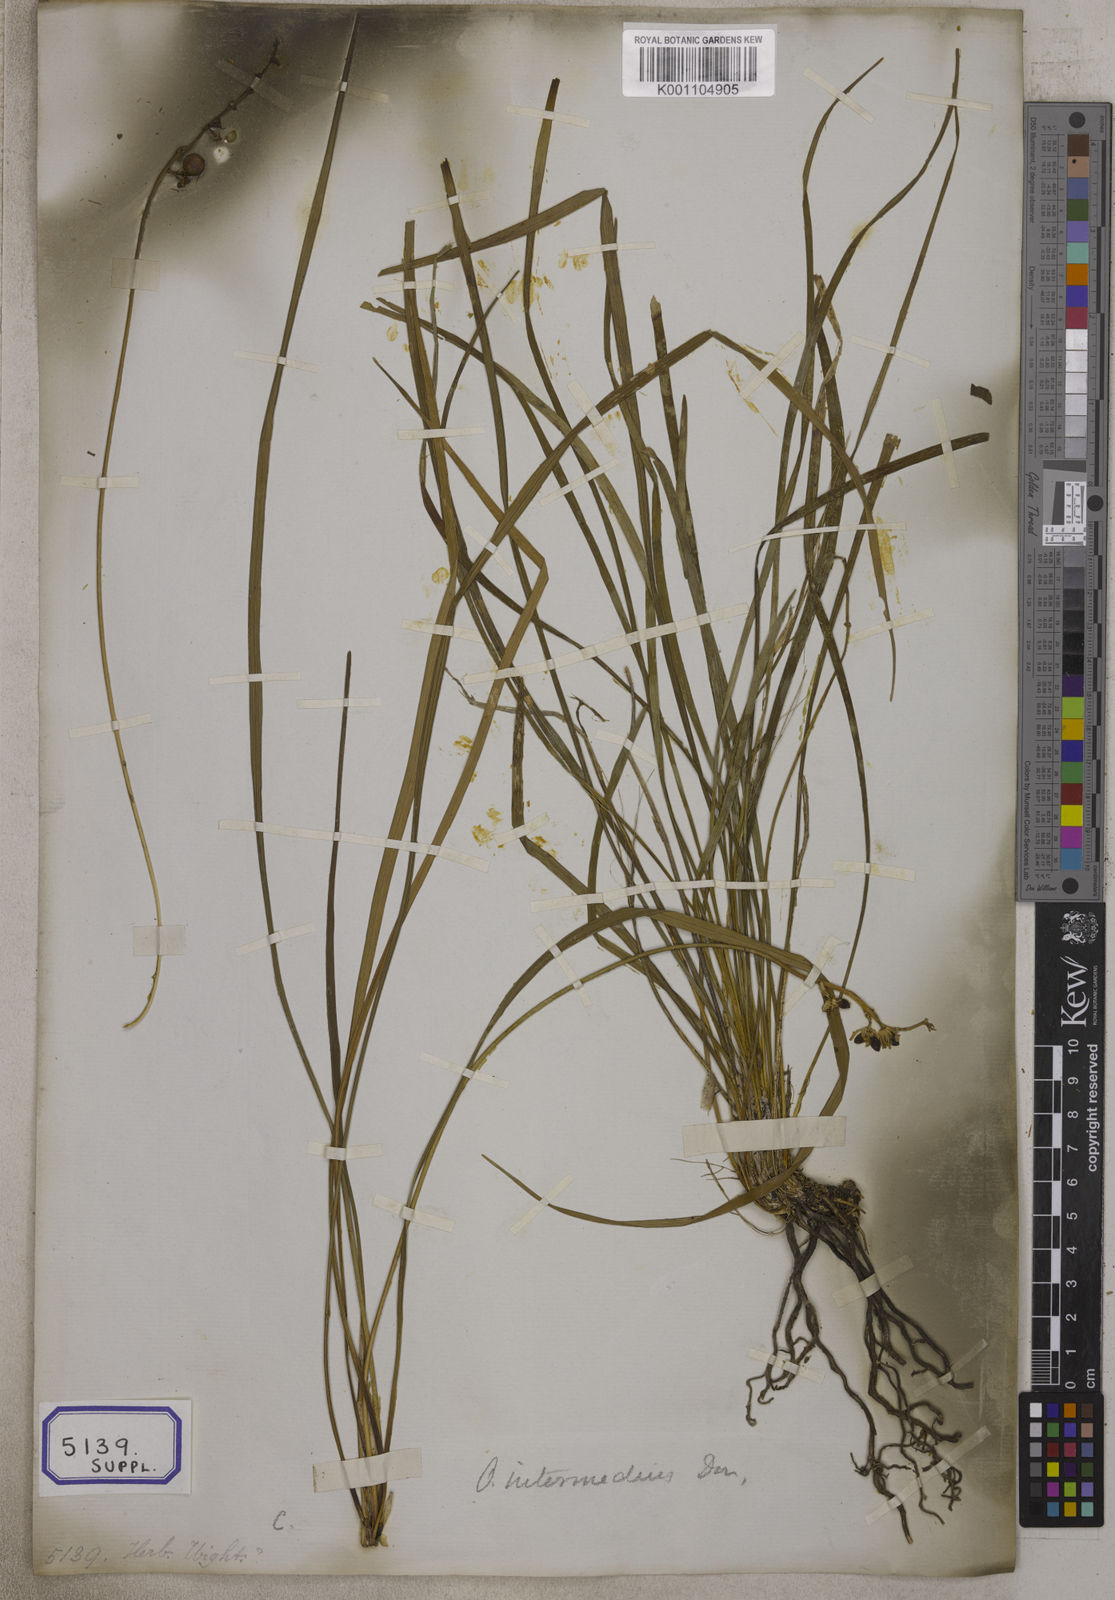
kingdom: Plantae
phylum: Tracheophyta
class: Liliopsida
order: Asparagales
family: Asparagaceae
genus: Ophiopogon
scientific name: Ophiopogon
